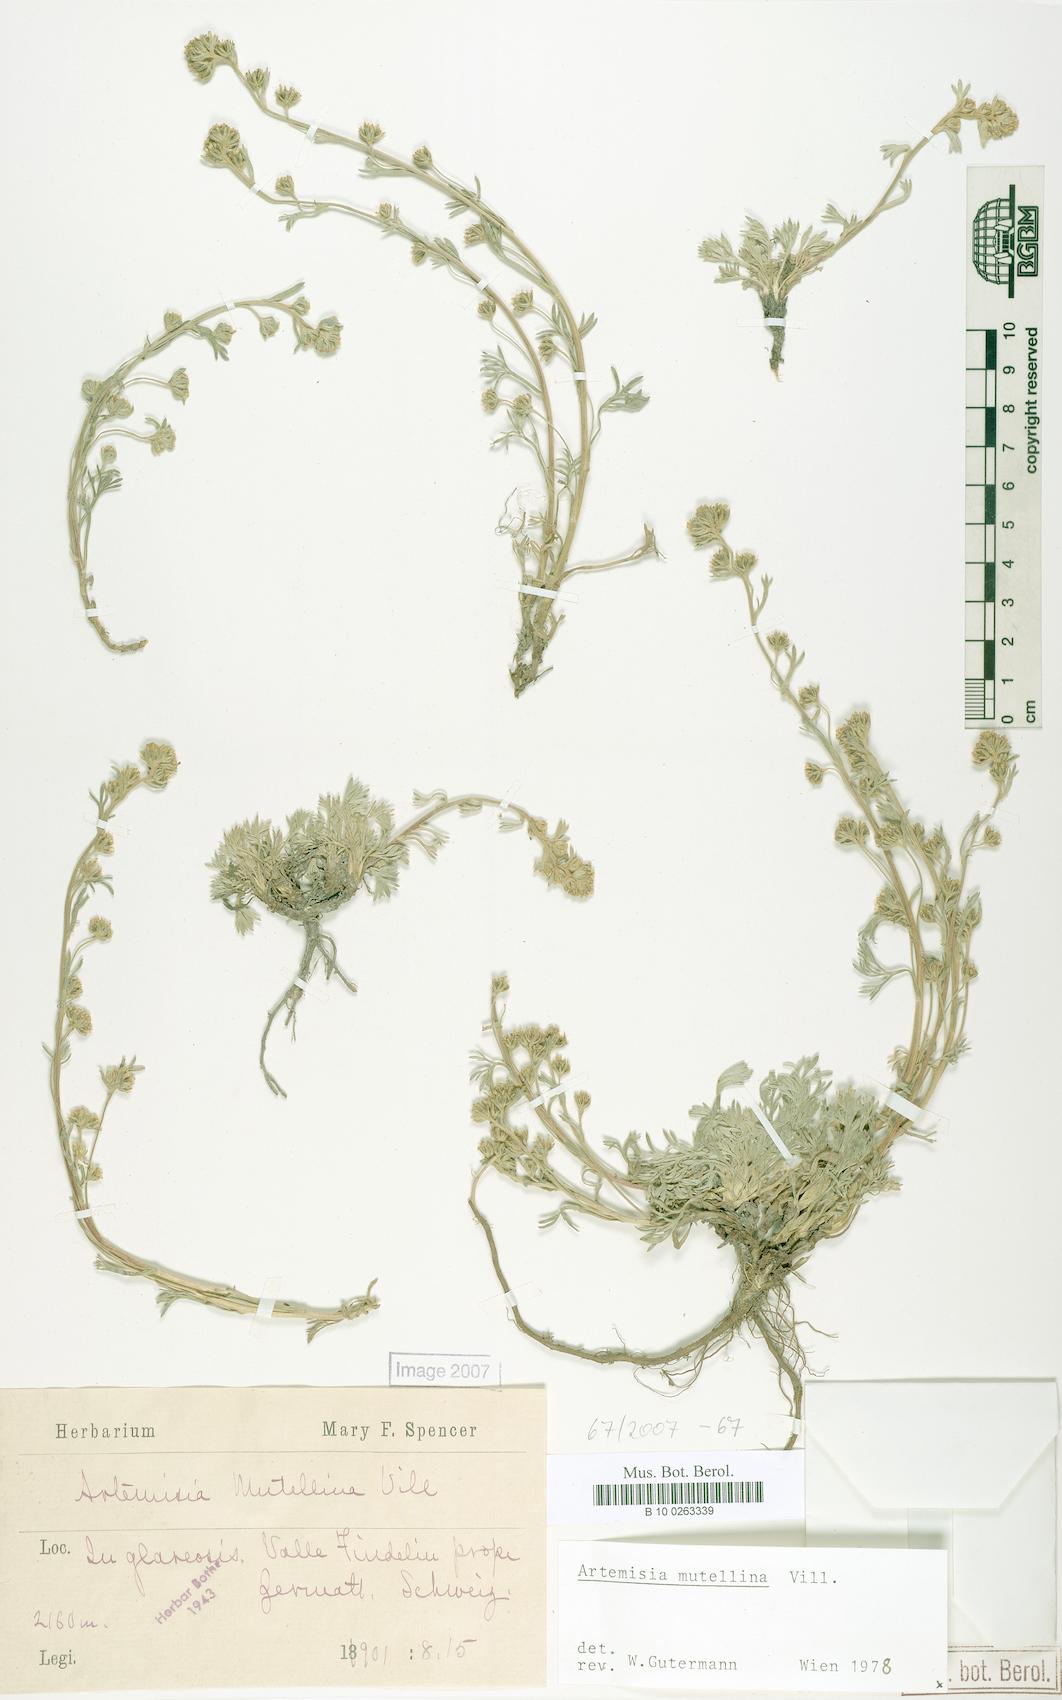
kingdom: Plantae
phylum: Tracheophyta
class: Magnoliopsida
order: Asterales
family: Asteraceae
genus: Artemisia
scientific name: Artemisia mutellina
